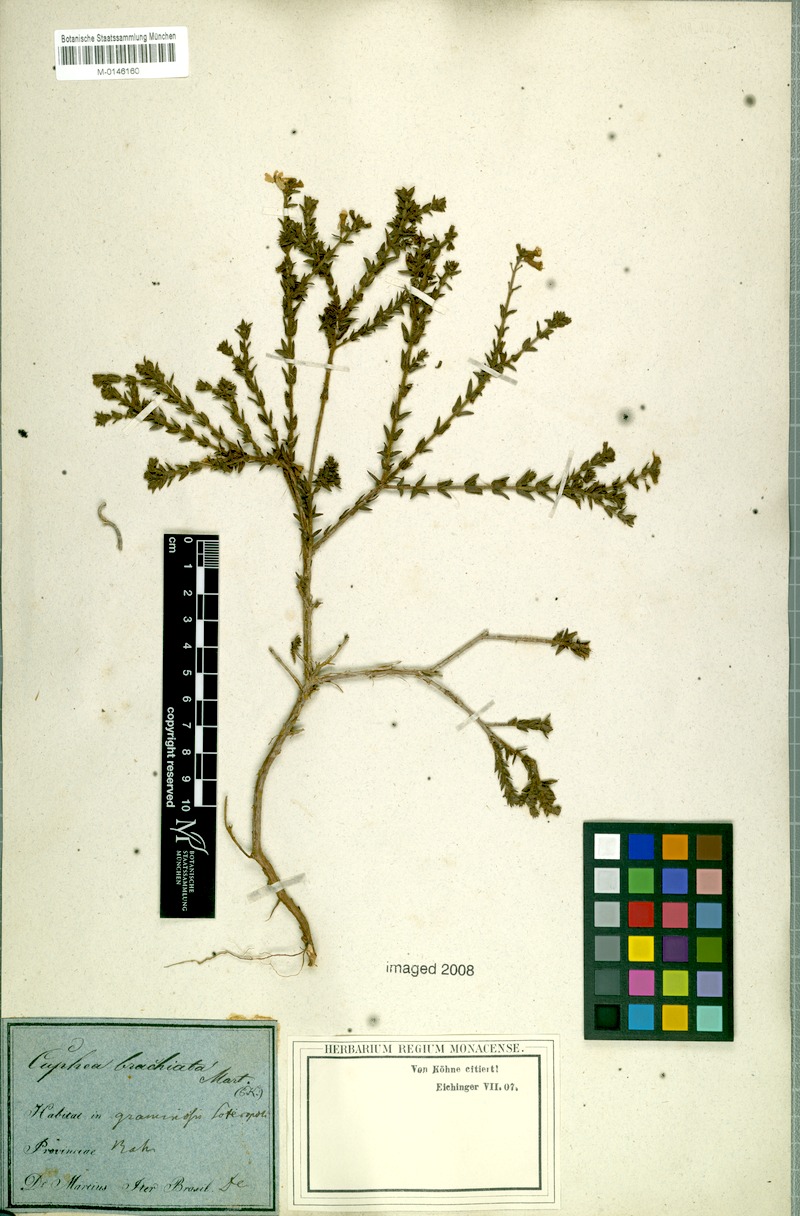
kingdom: Plantae
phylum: Tracheophyta
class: Magnoliopsida
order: Myrtales
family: Lythraceae
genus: Cuphea
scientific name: Cuphea brachiata
